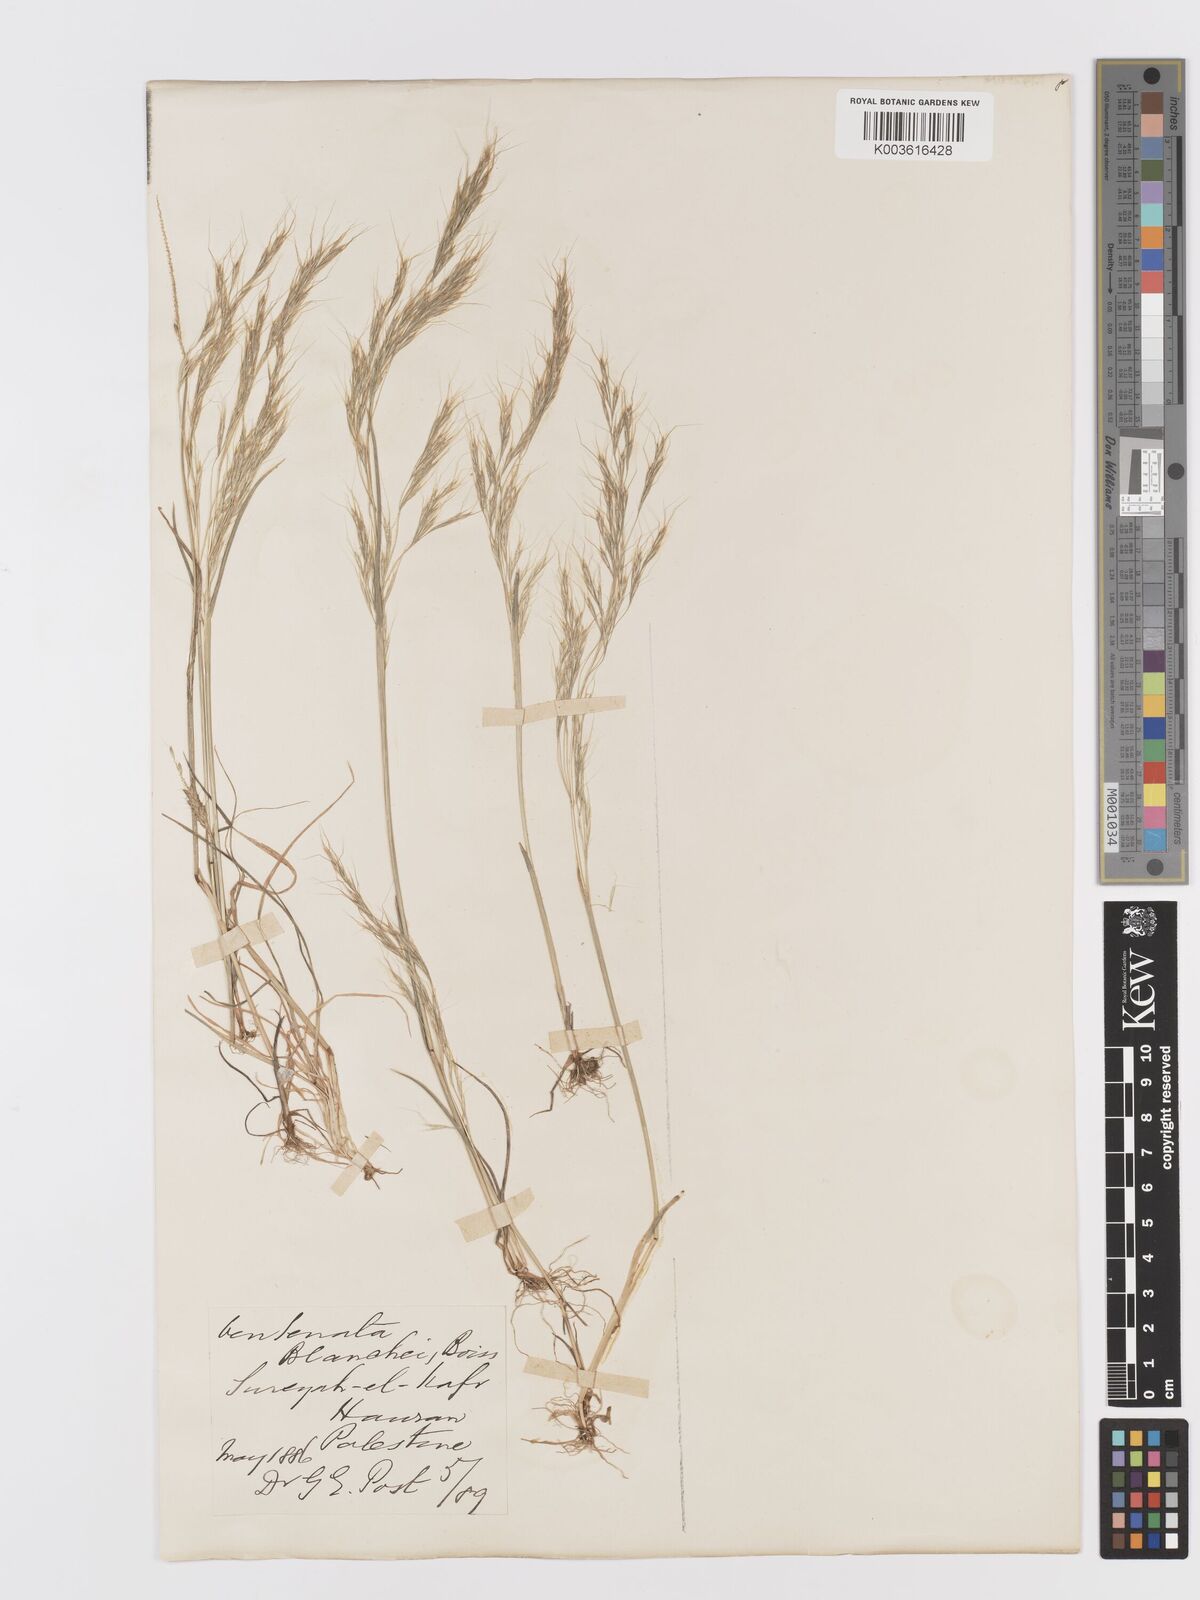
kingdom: Plantae
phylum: Tracheophyta
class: Liliopsida
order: Poales
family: Poaceae
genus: Ventenata
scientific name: Ventenata blanchei
